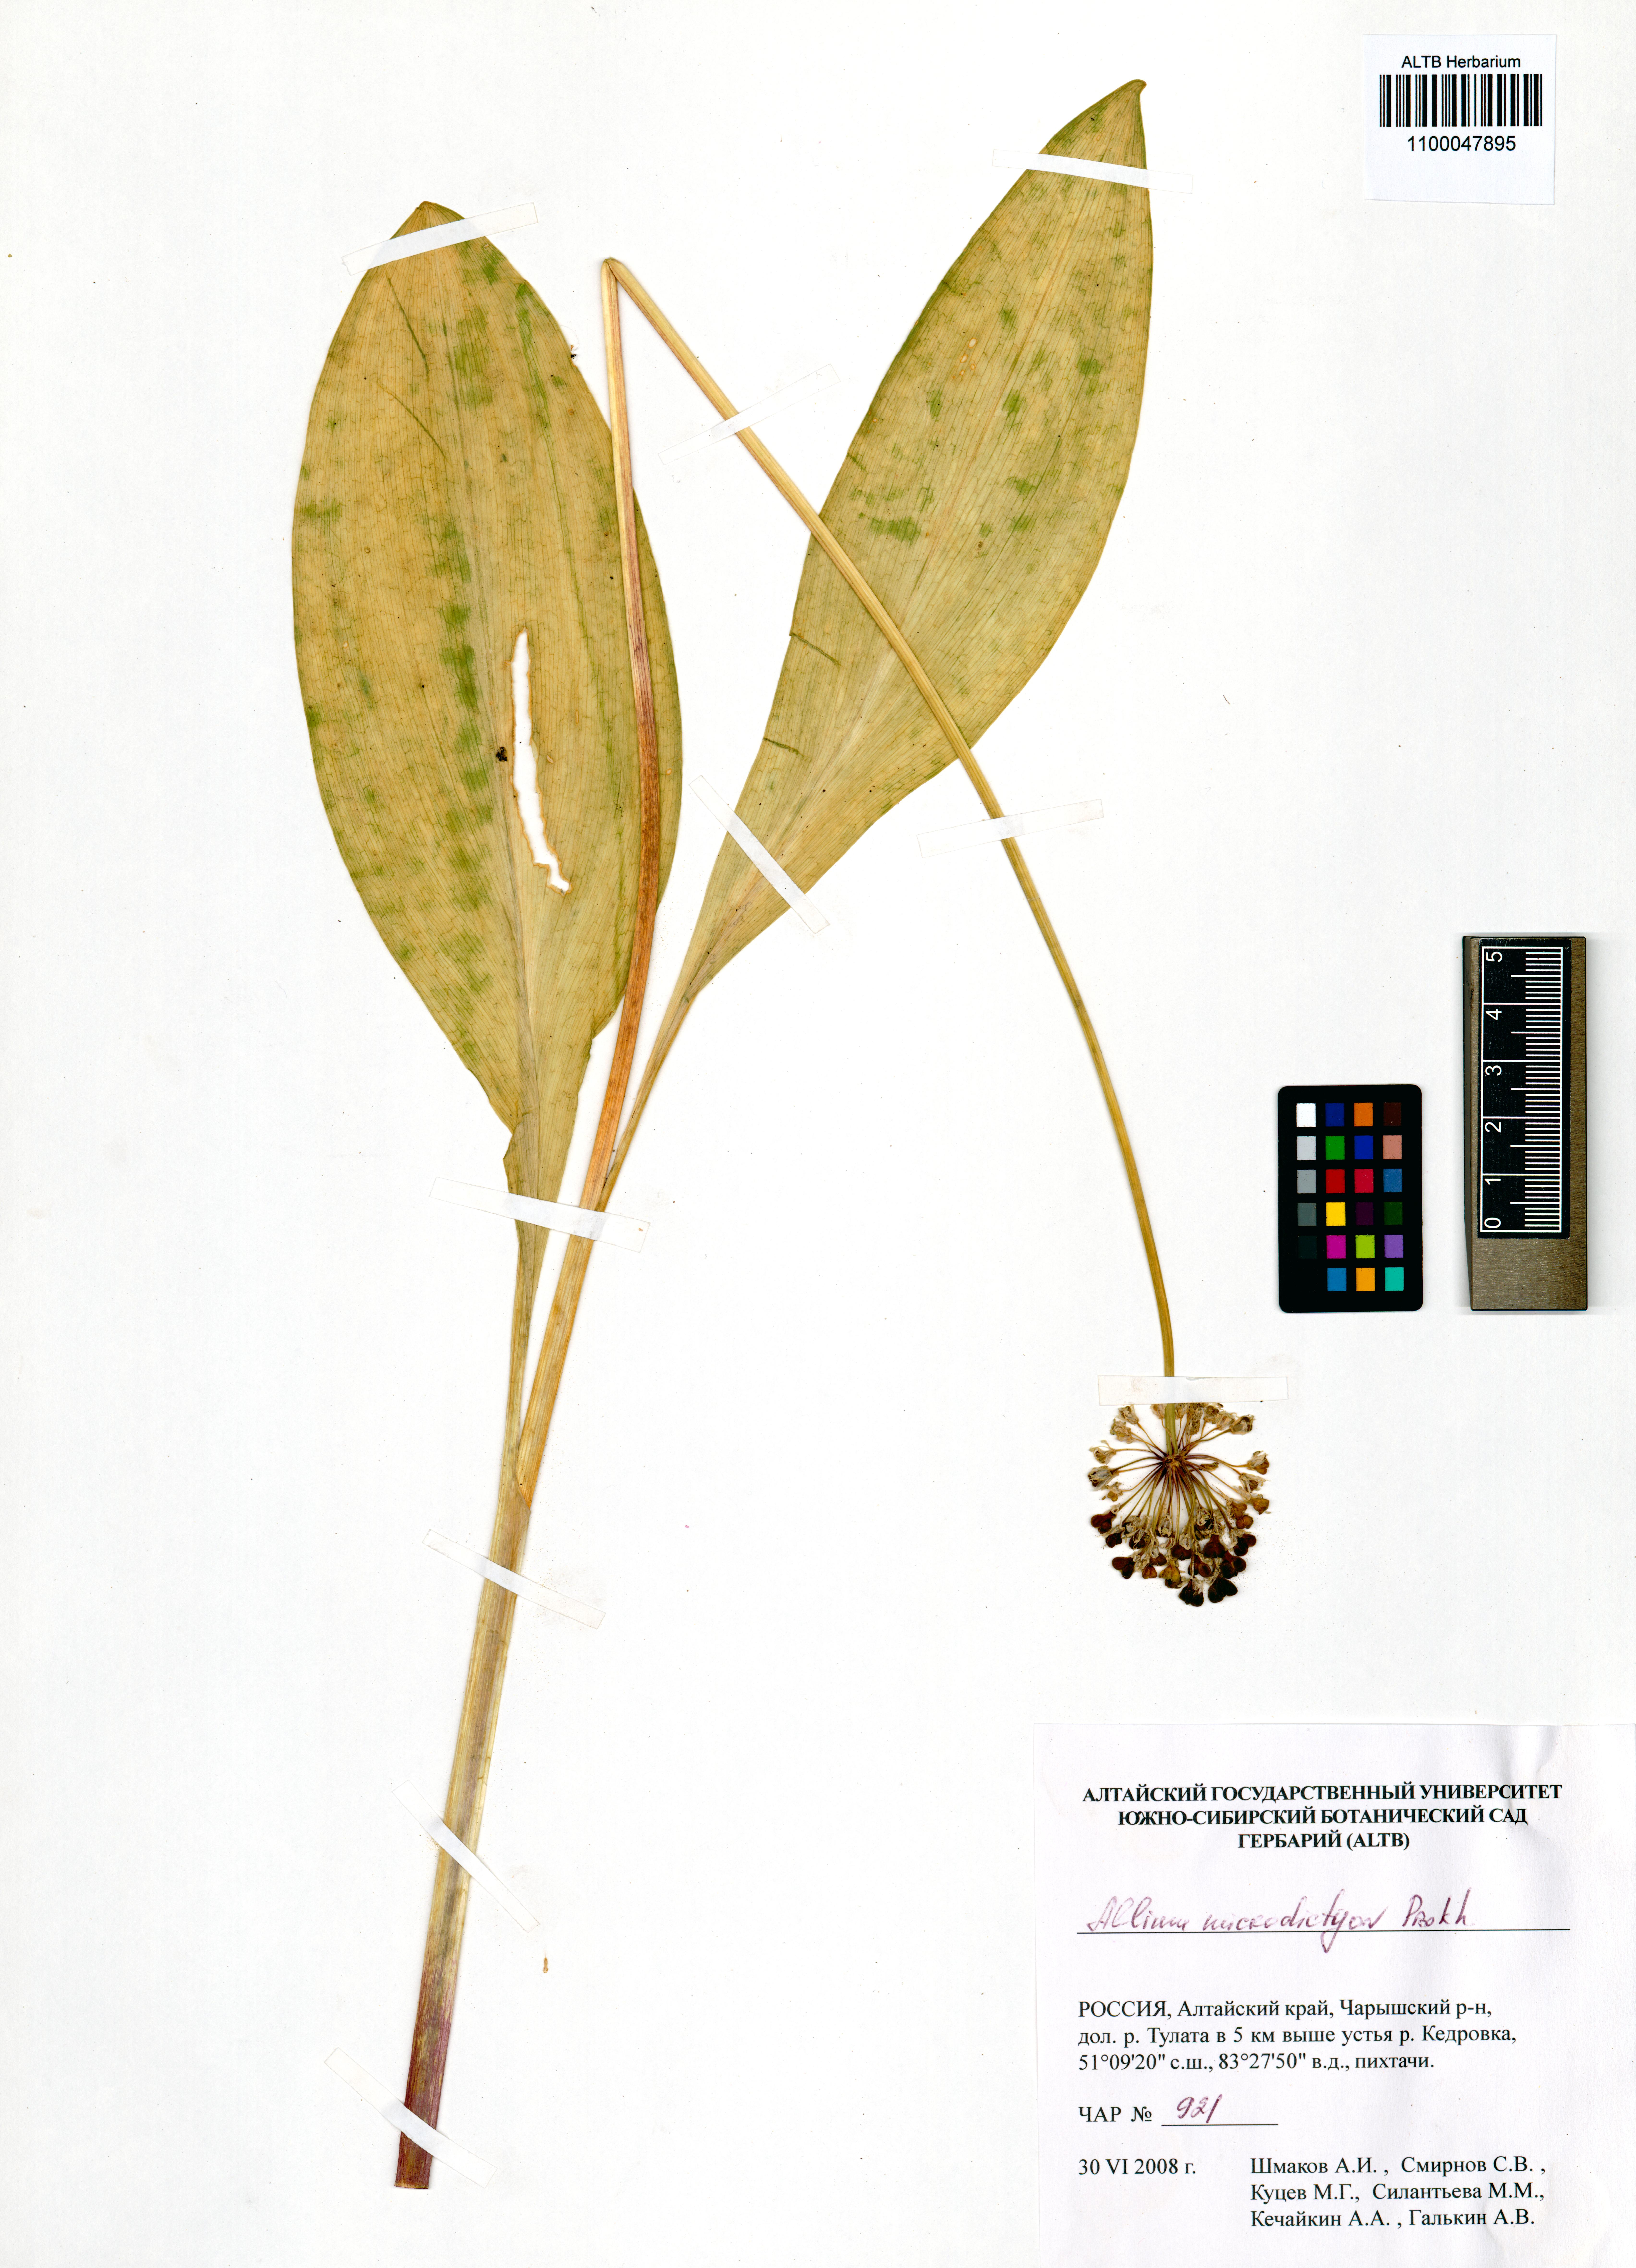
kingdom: Plantae
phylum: Tracheophyta
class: Liliopsida
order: Asparagales
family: Amaryllidaceae
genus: Allium
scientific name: Allium microdictyon
